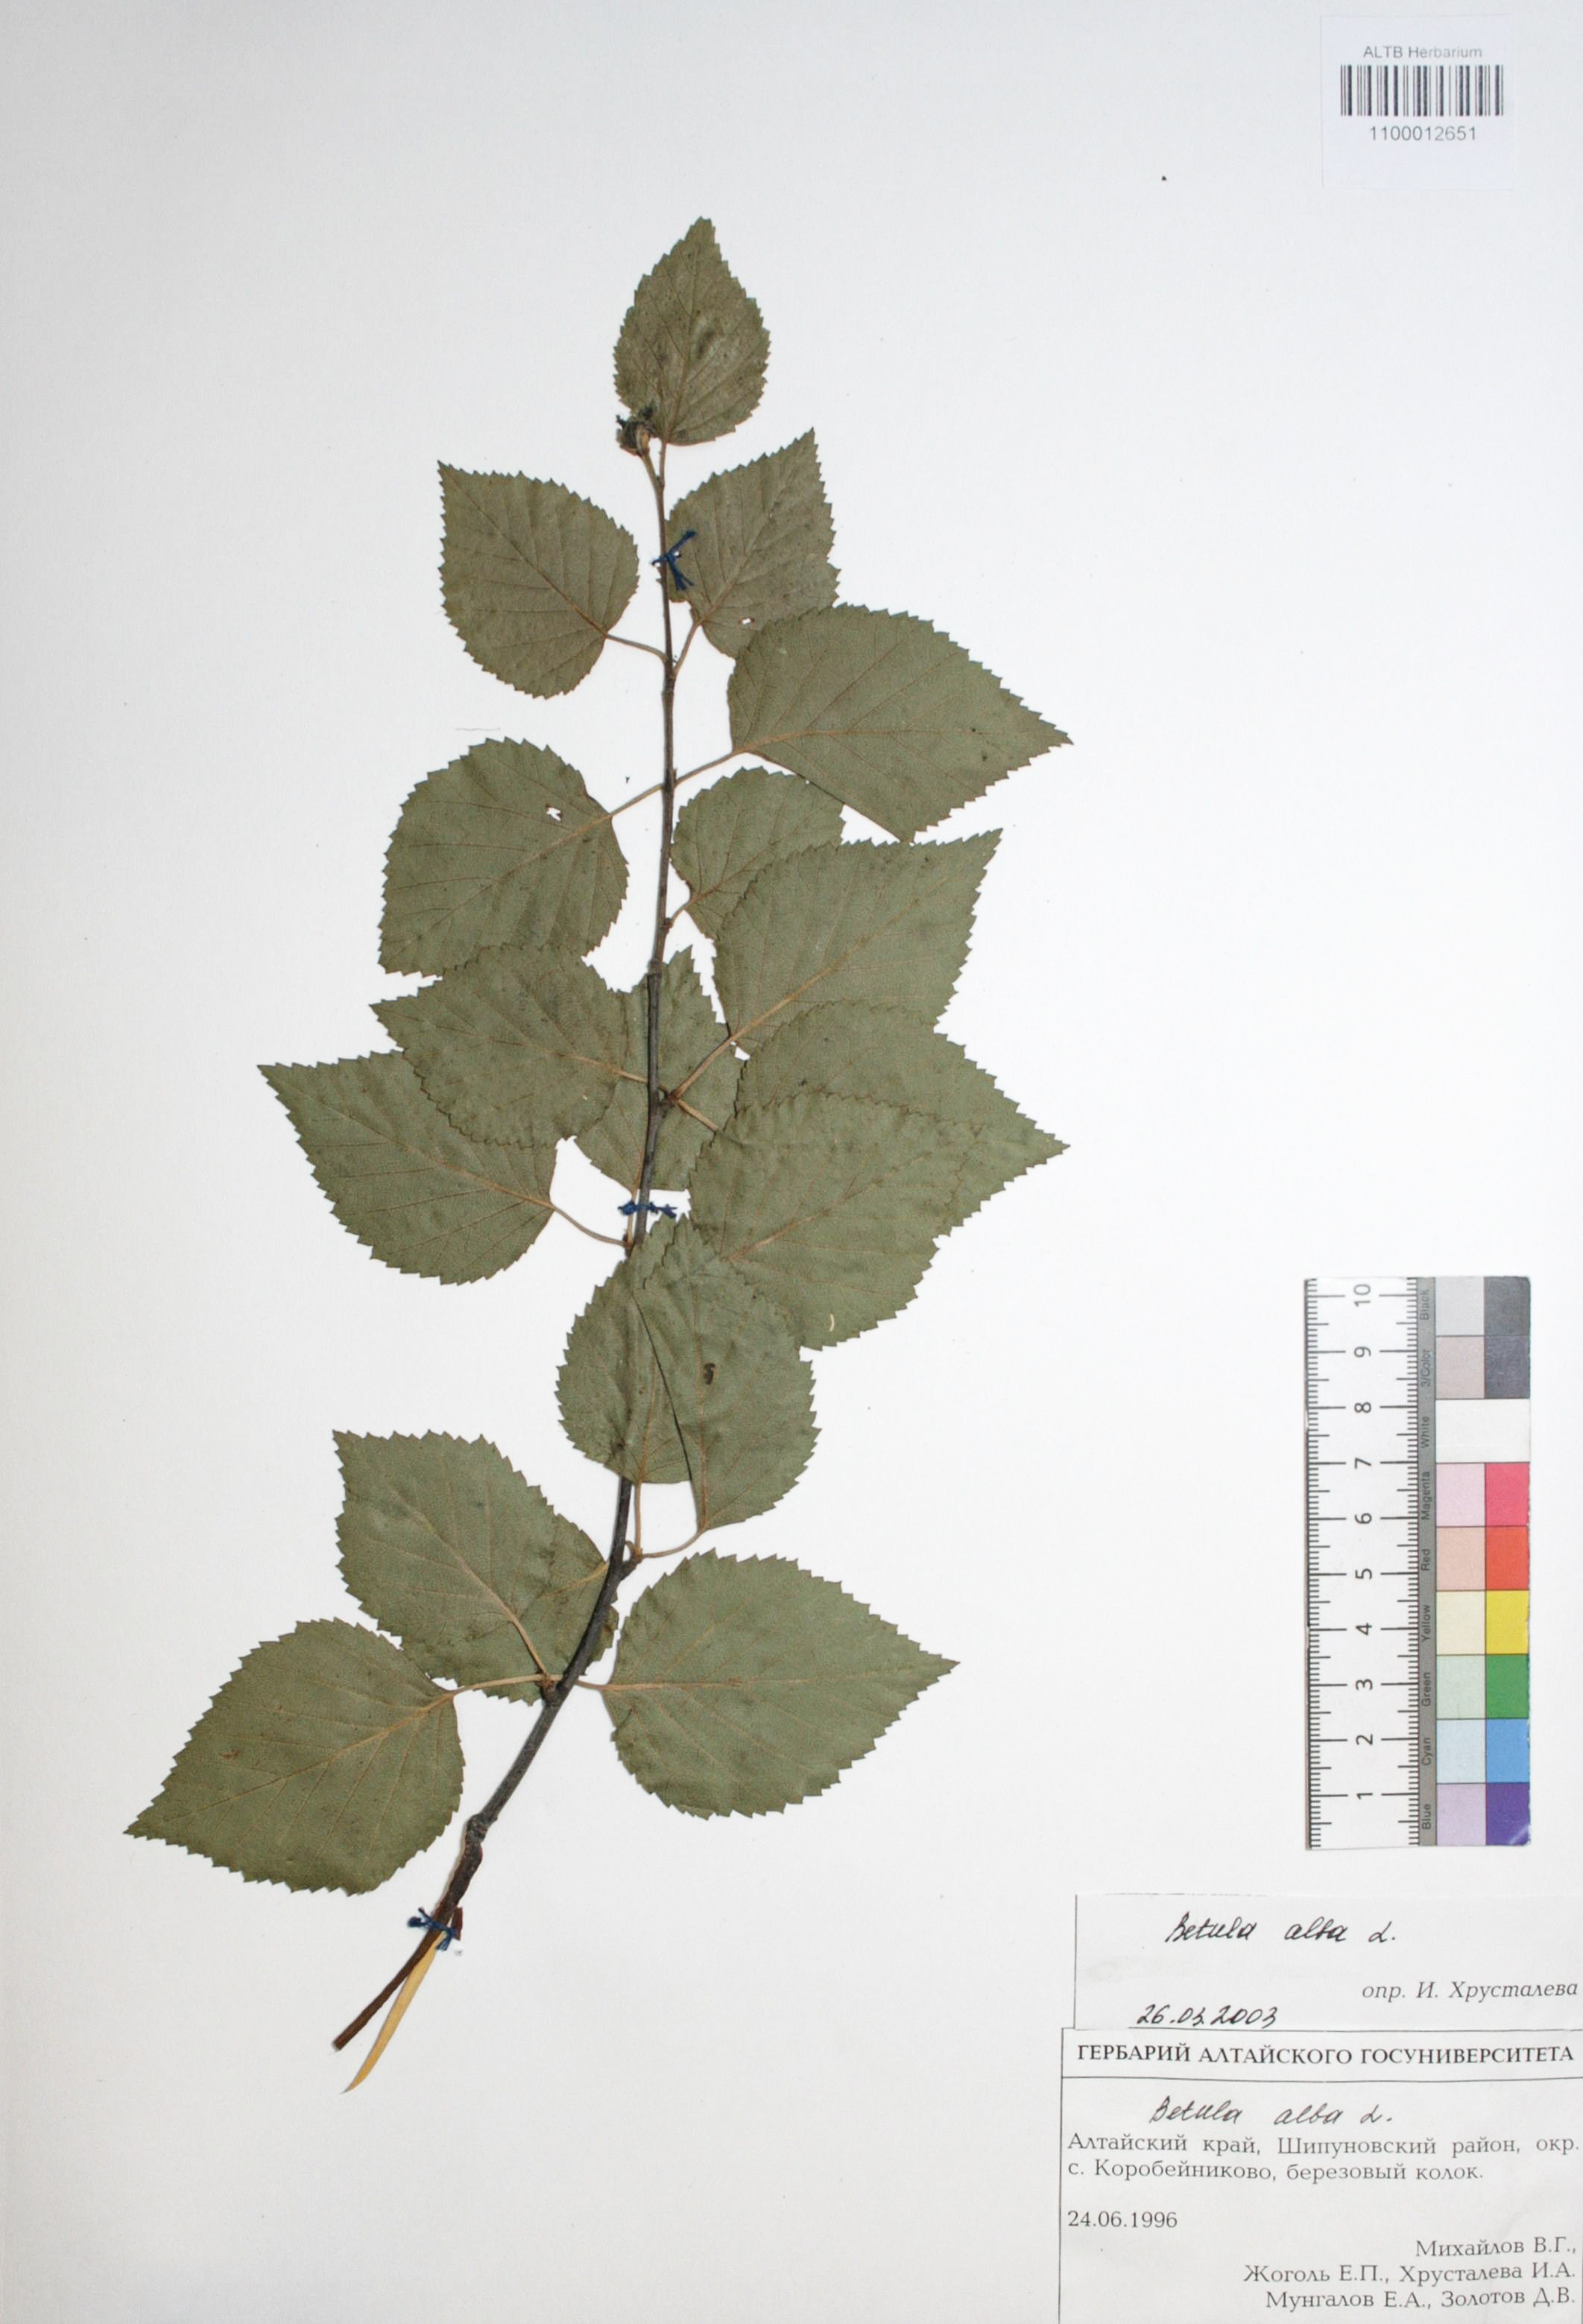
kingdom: Plantae
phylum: Tracheophyta
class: Magnoliopsida
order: Fagales
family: Betulaceae
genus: Betula
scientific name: Betula pubescens
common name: Downy birch
